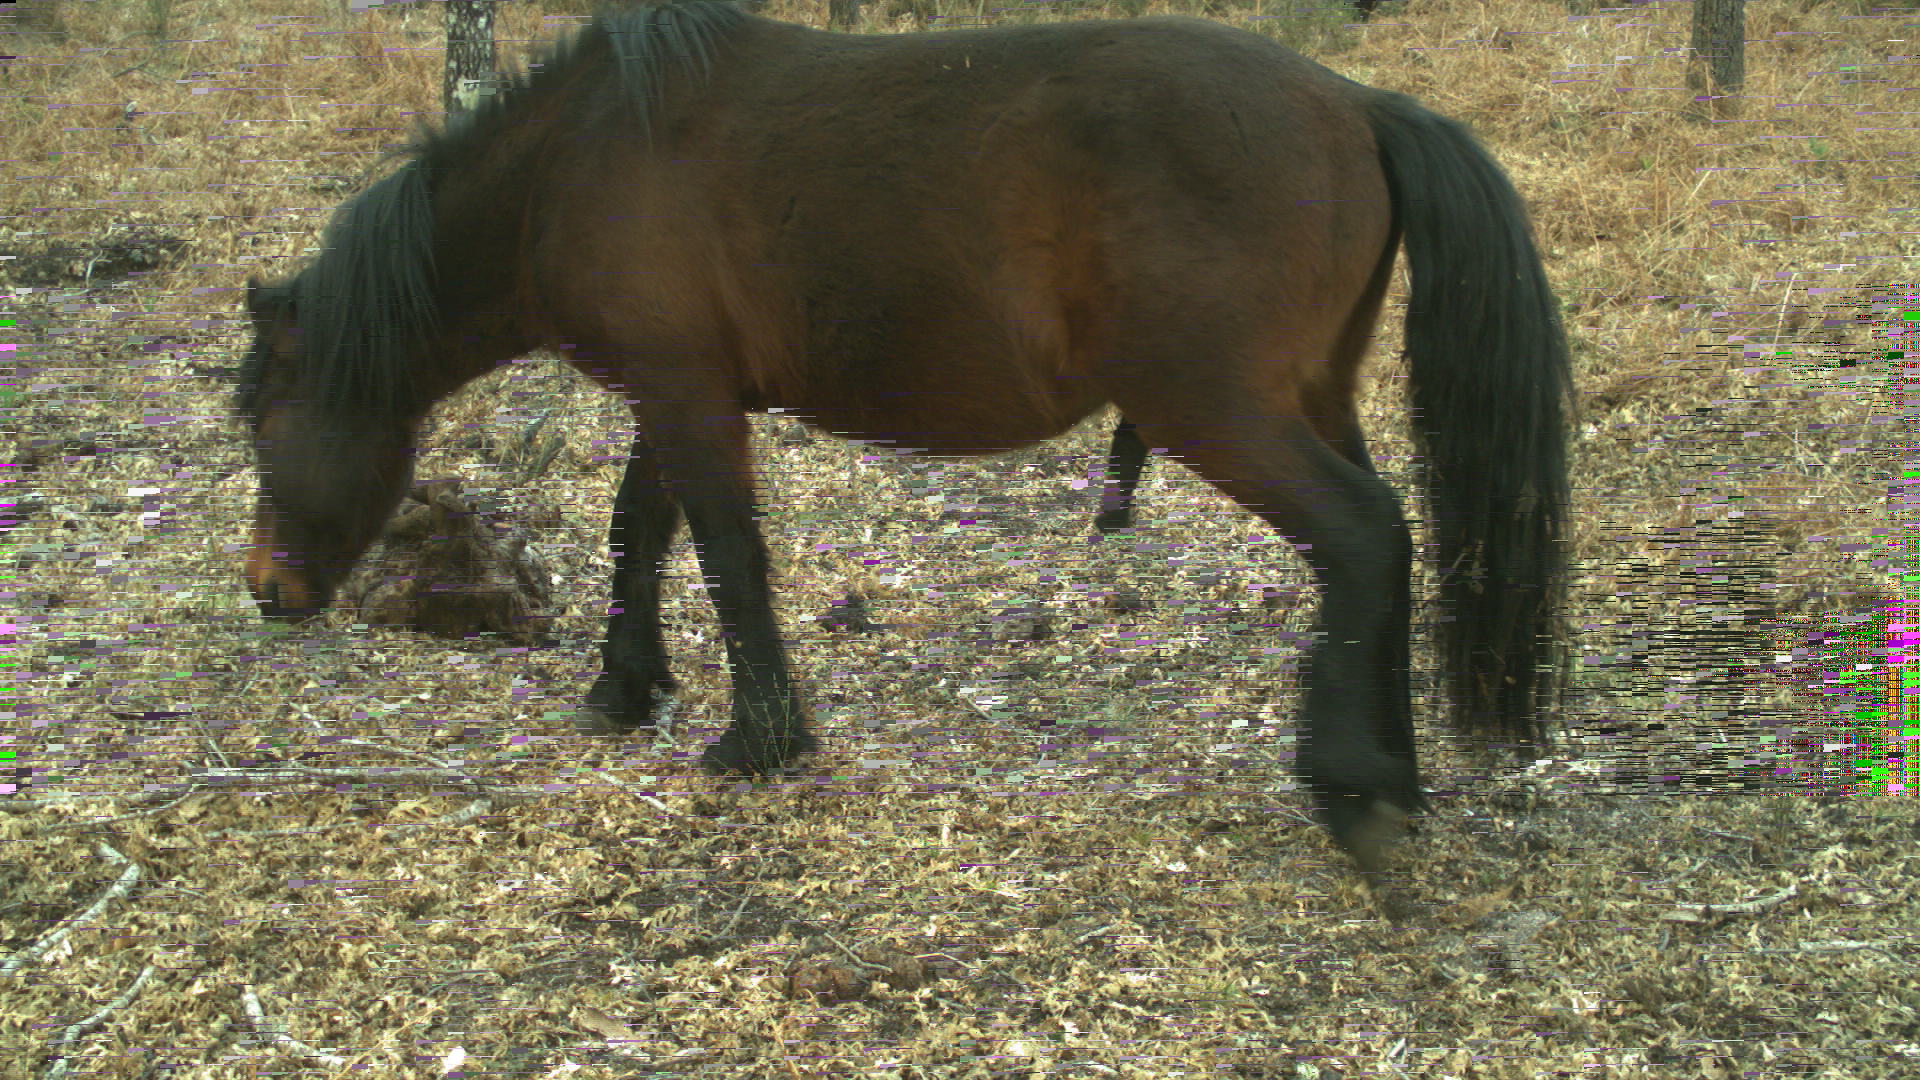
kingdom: Animalia
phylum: Chordata
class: Mammalia
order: Perissodactyla
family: Equidae
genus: Equus
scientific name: Equus caballus
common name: Horse
